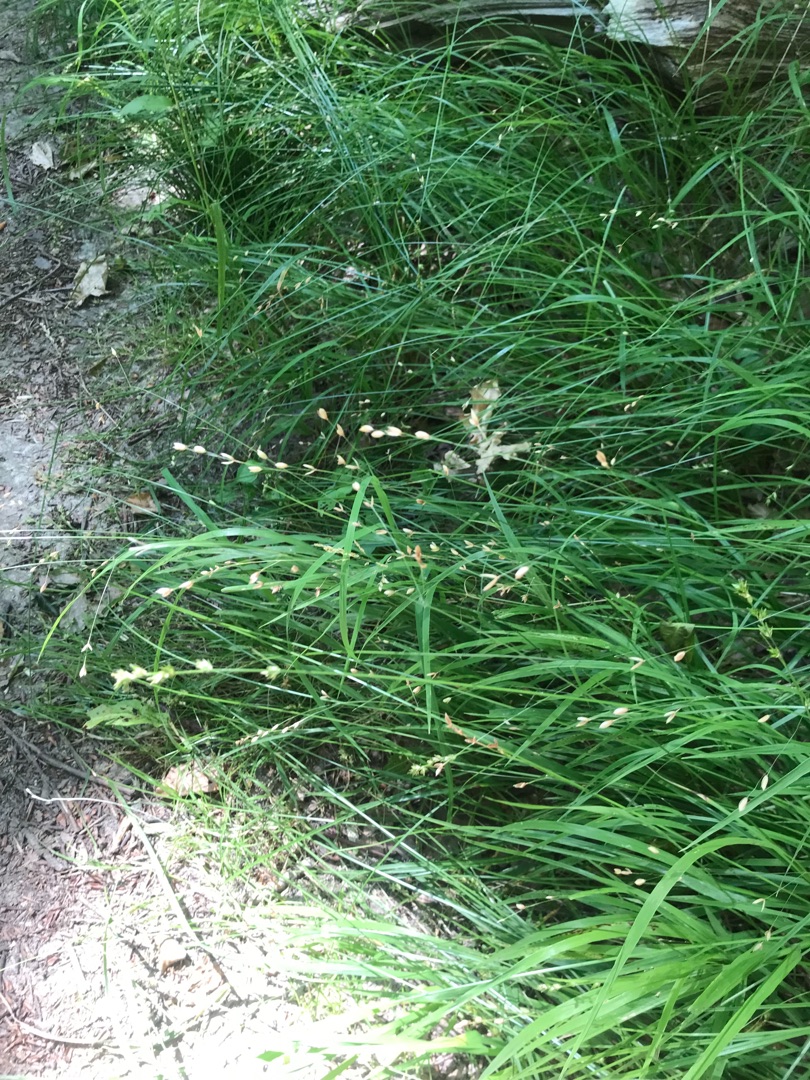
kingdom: Plantae
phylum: Tracheophyta
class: Liliopsida
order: Poales
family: Poaceae
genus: Melica
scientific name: Melica uniflora
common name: Enblomstret flitteraks
